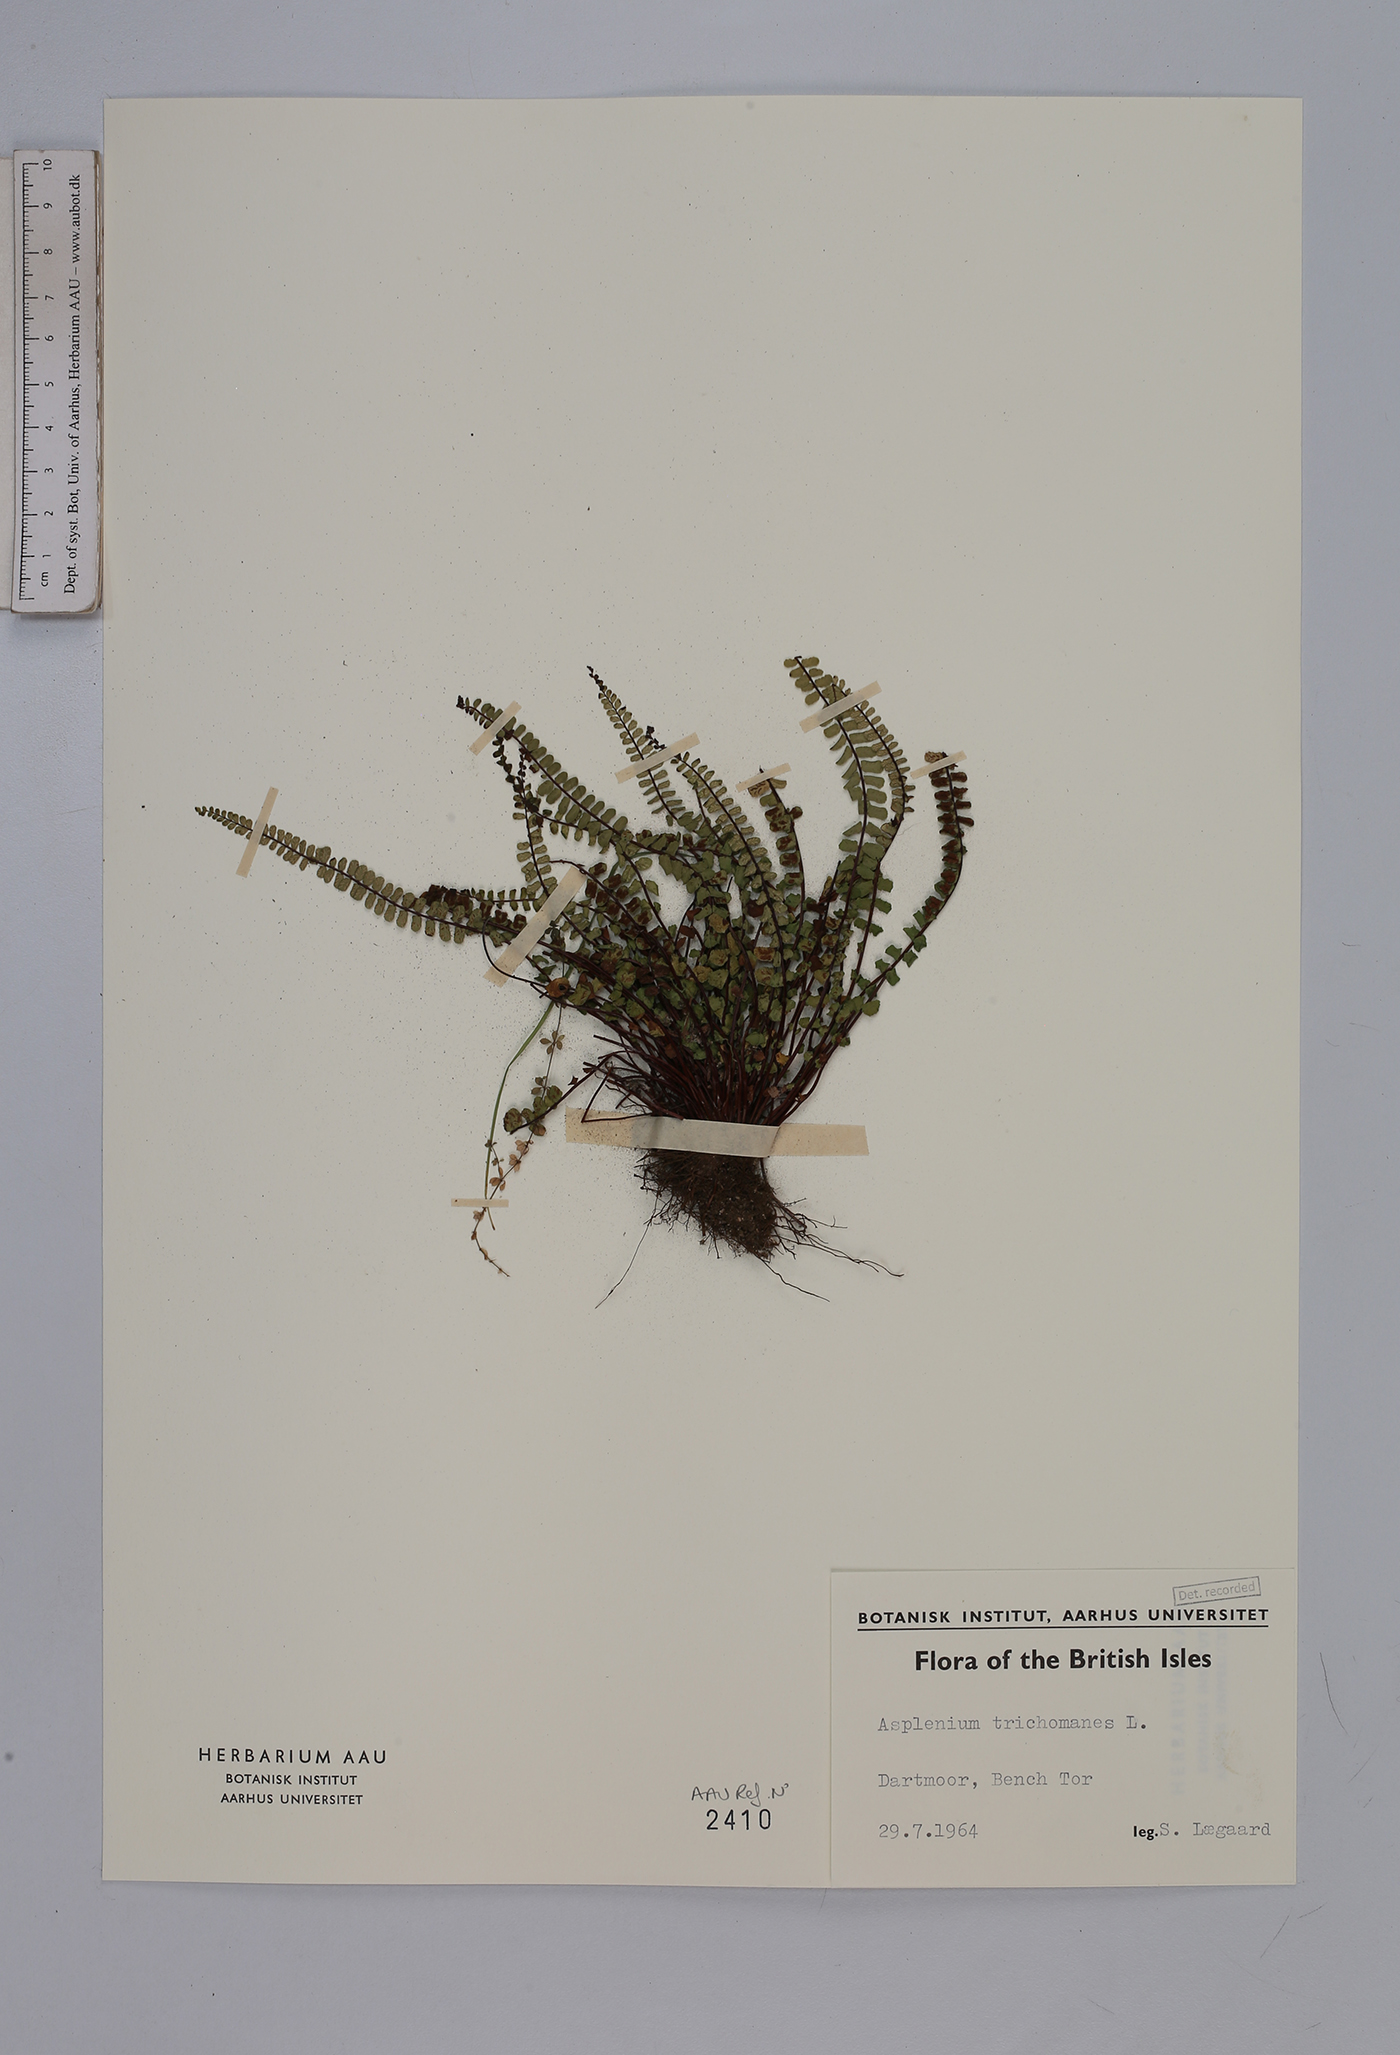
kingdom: Plantae
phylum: Tracheophyta
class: Polypodiopsida
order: Polypodiales
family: Aspleniaceae
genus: Asplenium
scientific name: Asplenium trichomanes
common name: Maidenhair spleenwort
